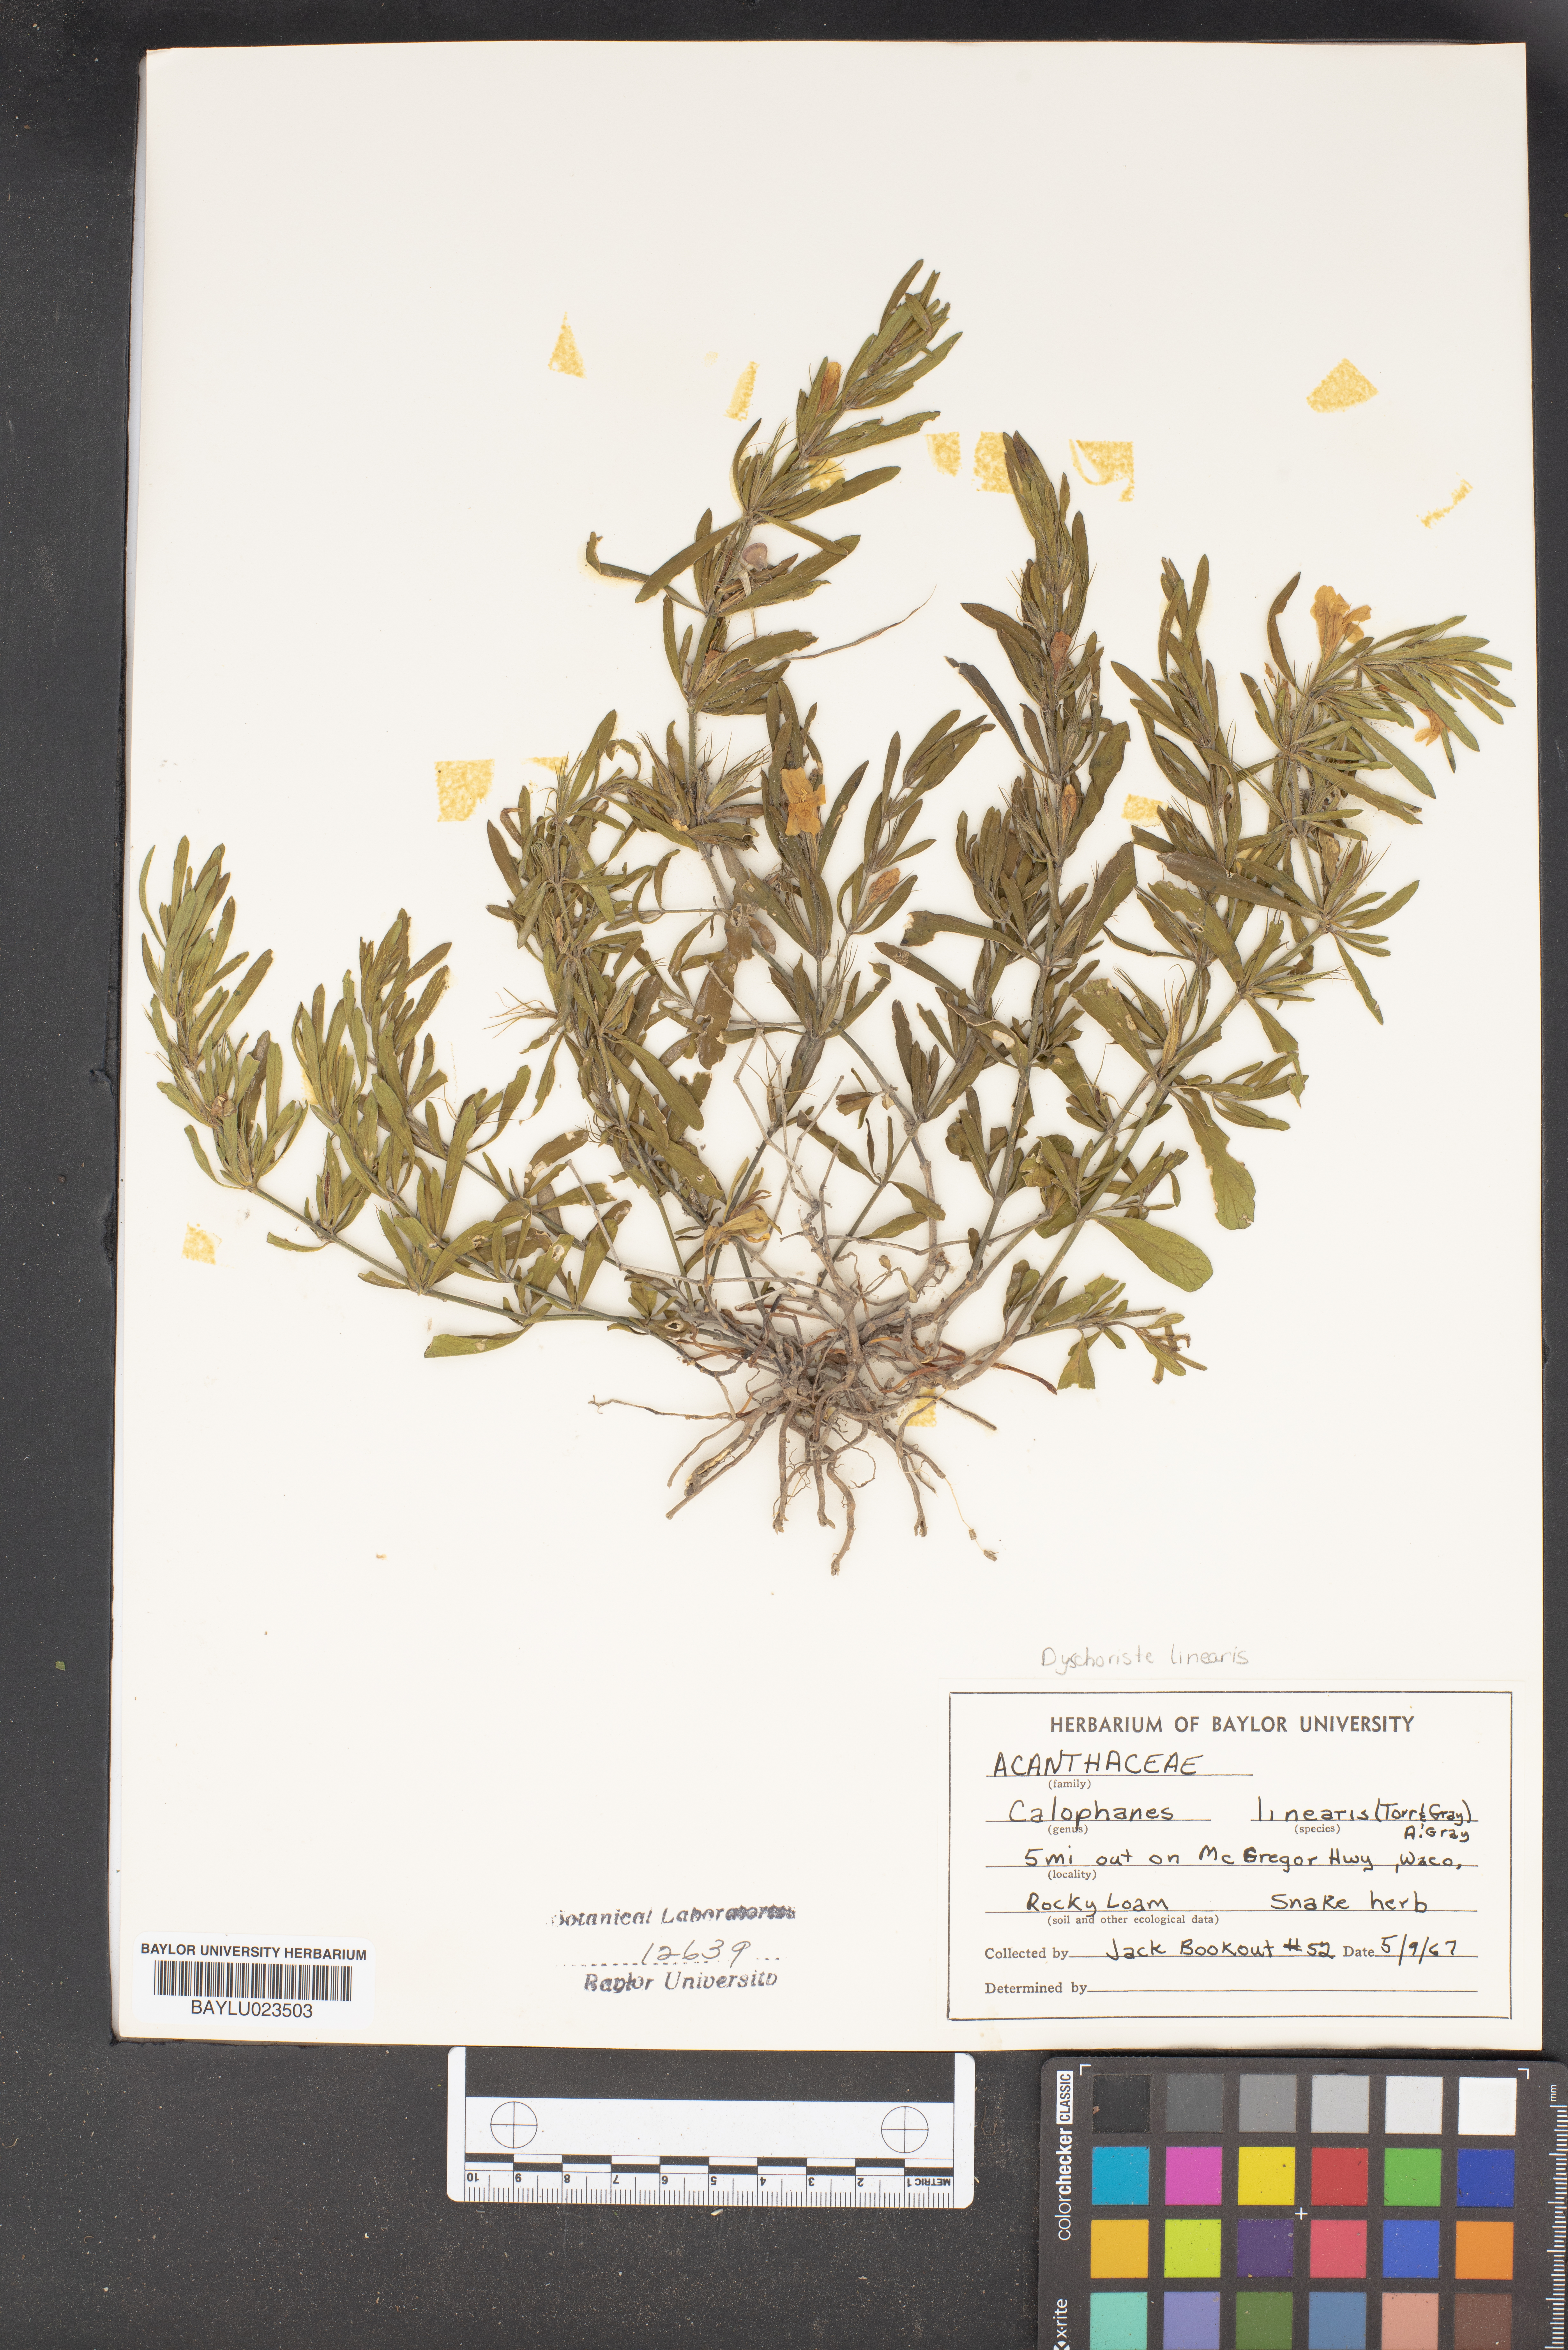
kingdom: Plantae
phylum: Tracheophyta
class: Magnoliopsida
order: Lamiales
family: Acanthaceae
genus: Dyschoriste
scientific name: Dyschoriste linearis
